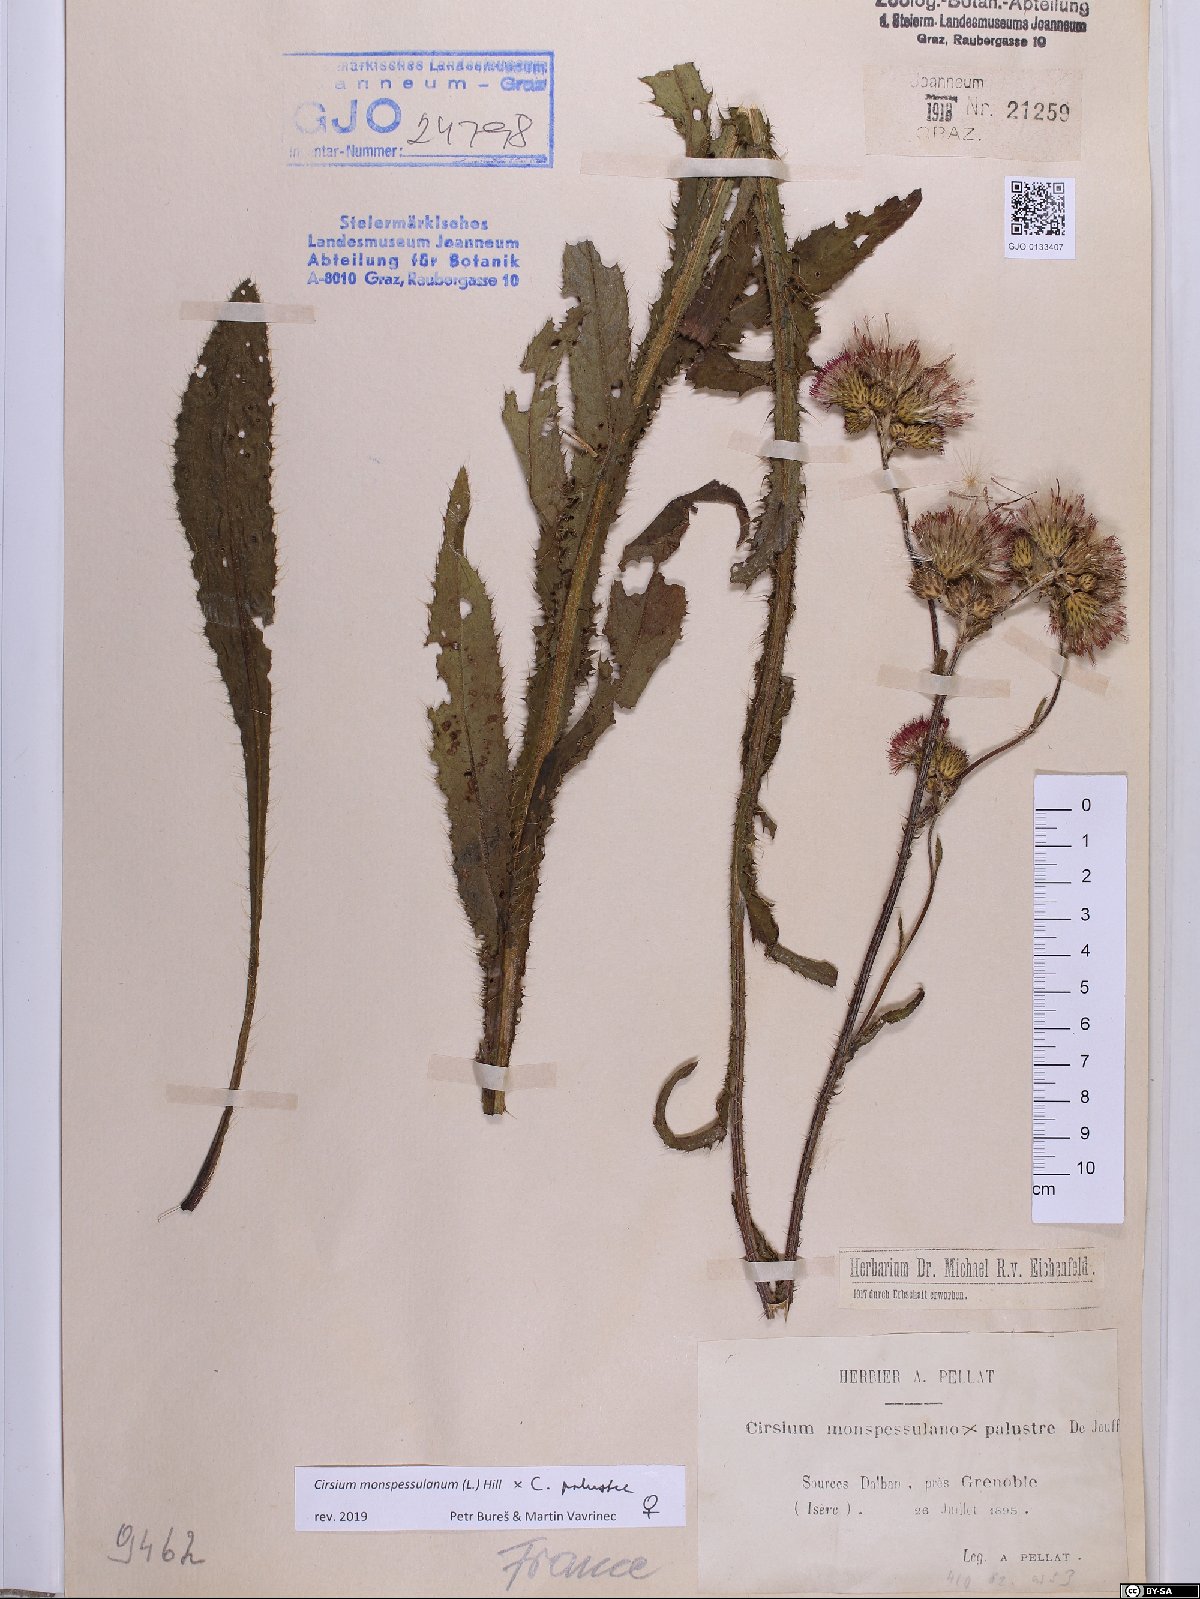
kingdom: Plantae
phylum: Tracheophyta
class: Magnoliopsida
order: Asterales
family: Asteraceae
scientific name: Asteraceae
